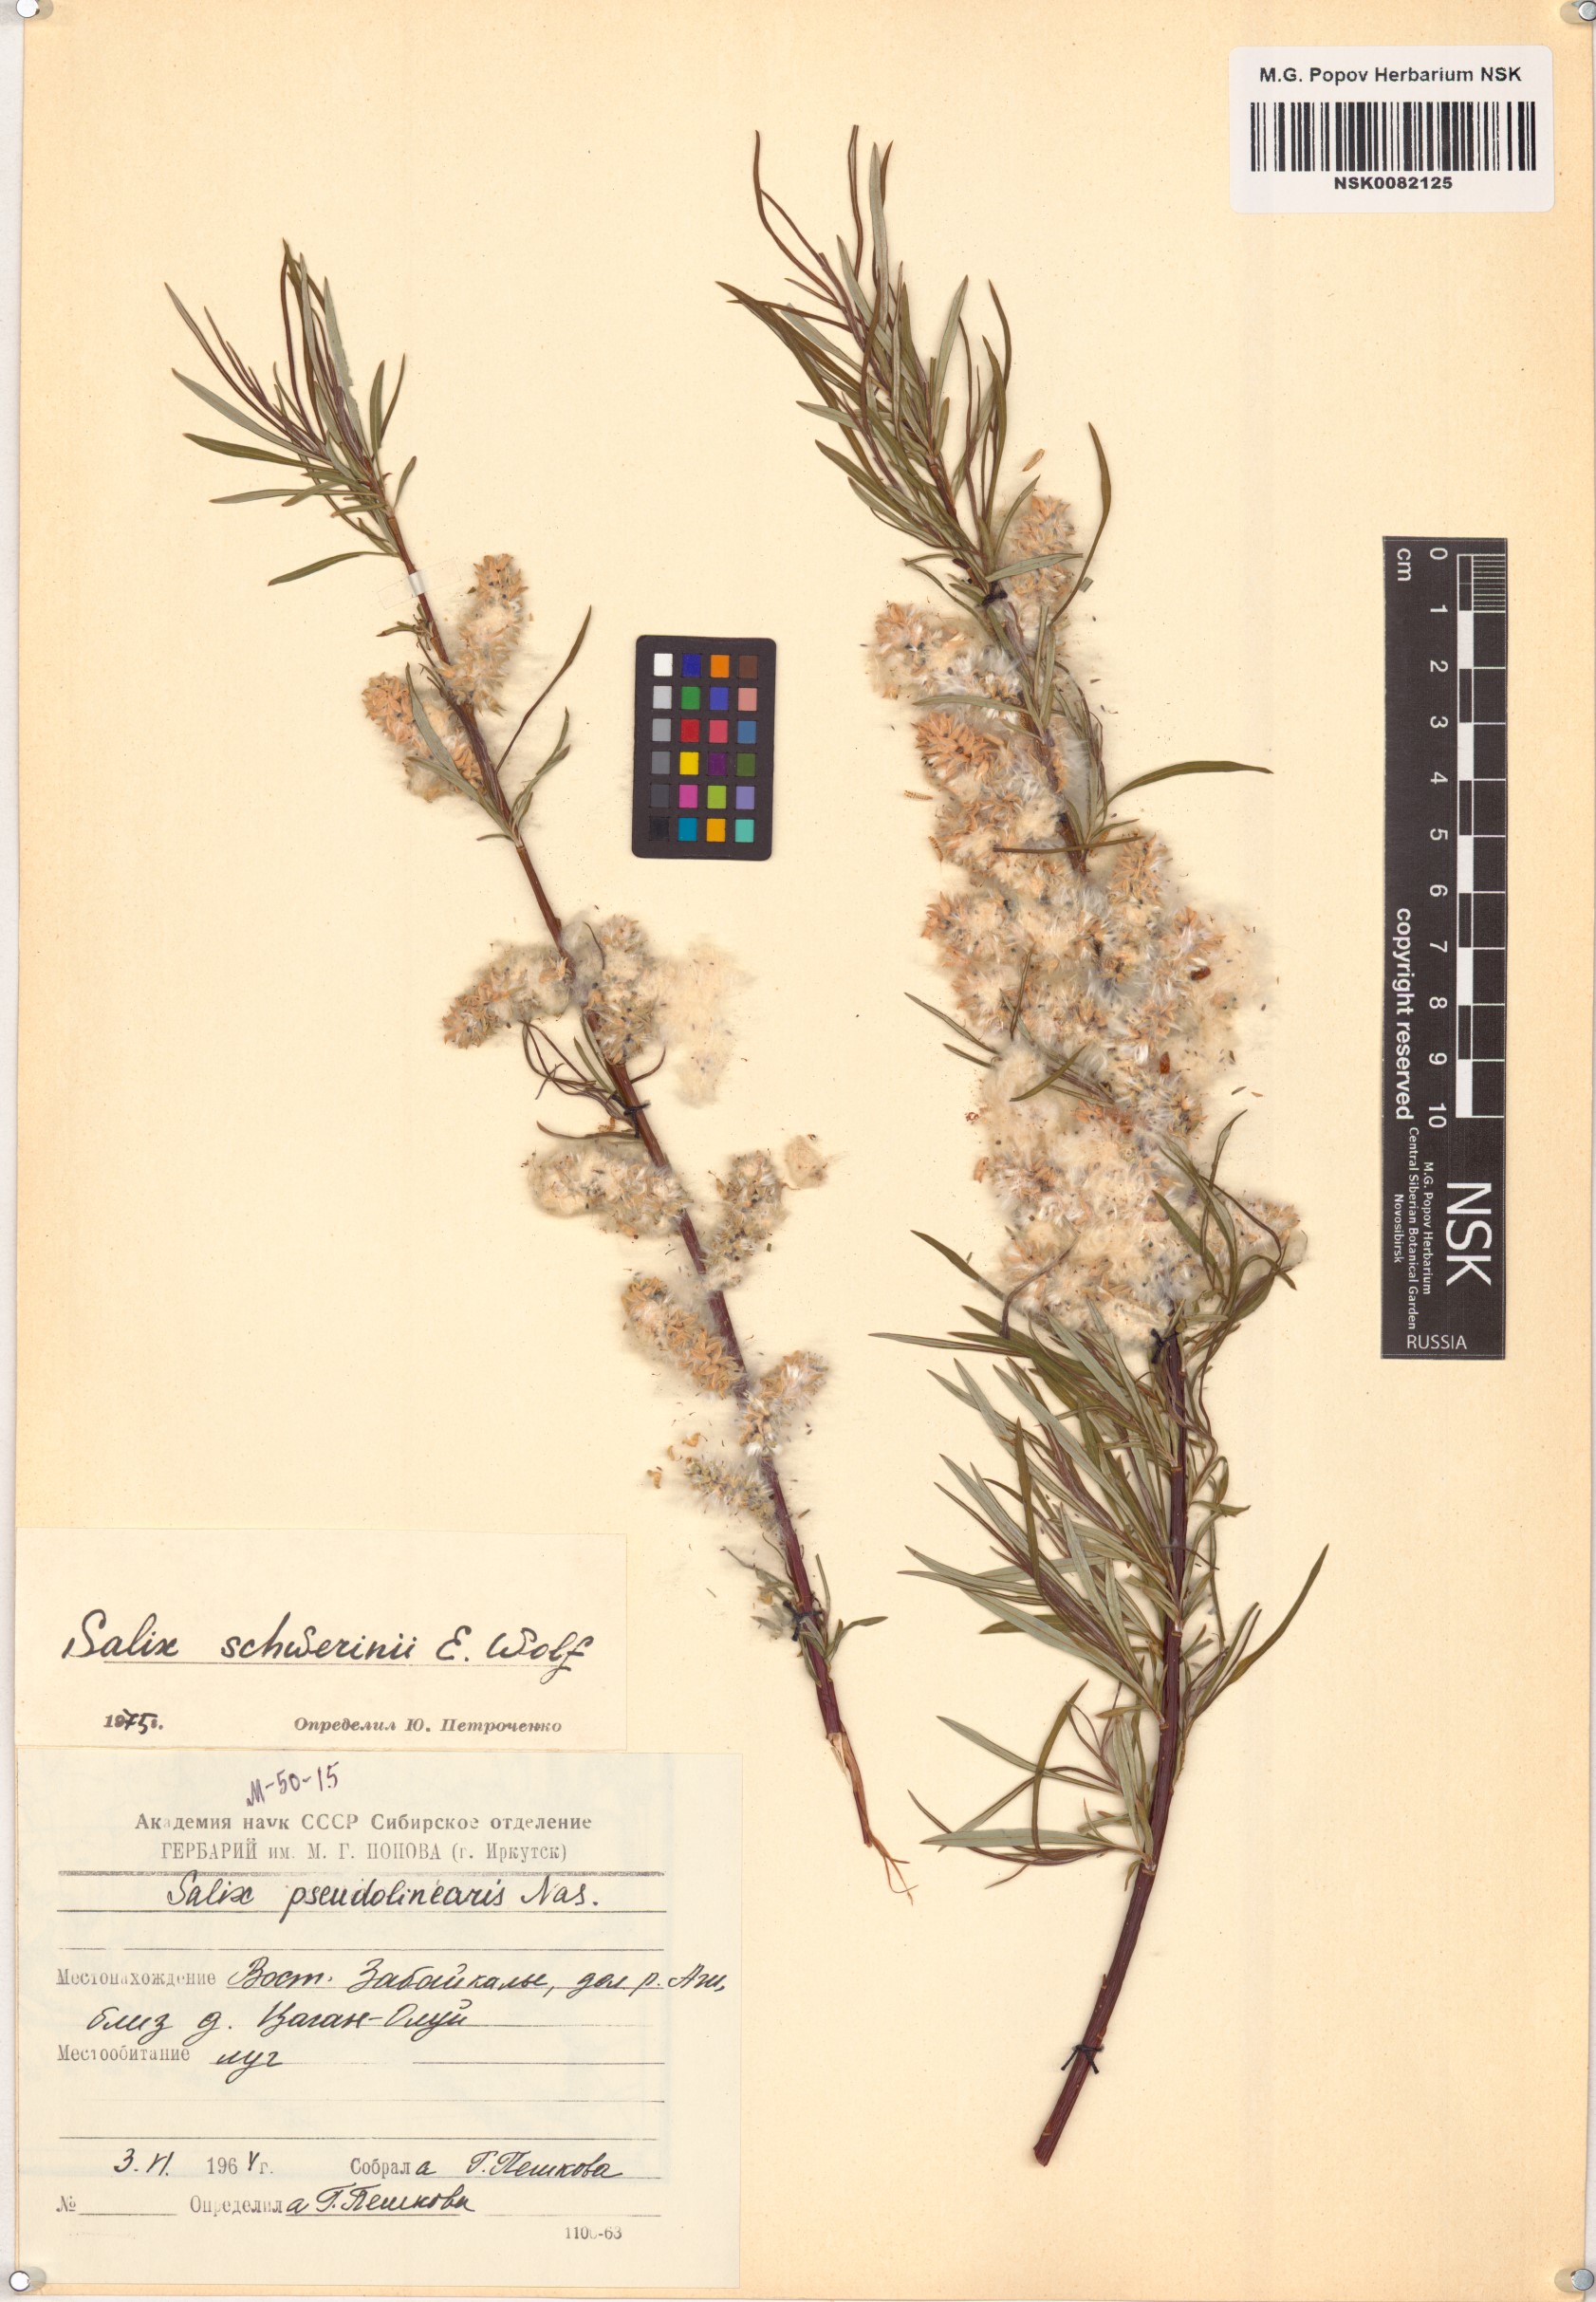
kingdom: Plantae
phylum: Tracheophyta
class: Magnoliopsida
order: Malpighiales
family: Salicaceae
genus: Salix
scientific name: Salix schwerinii
